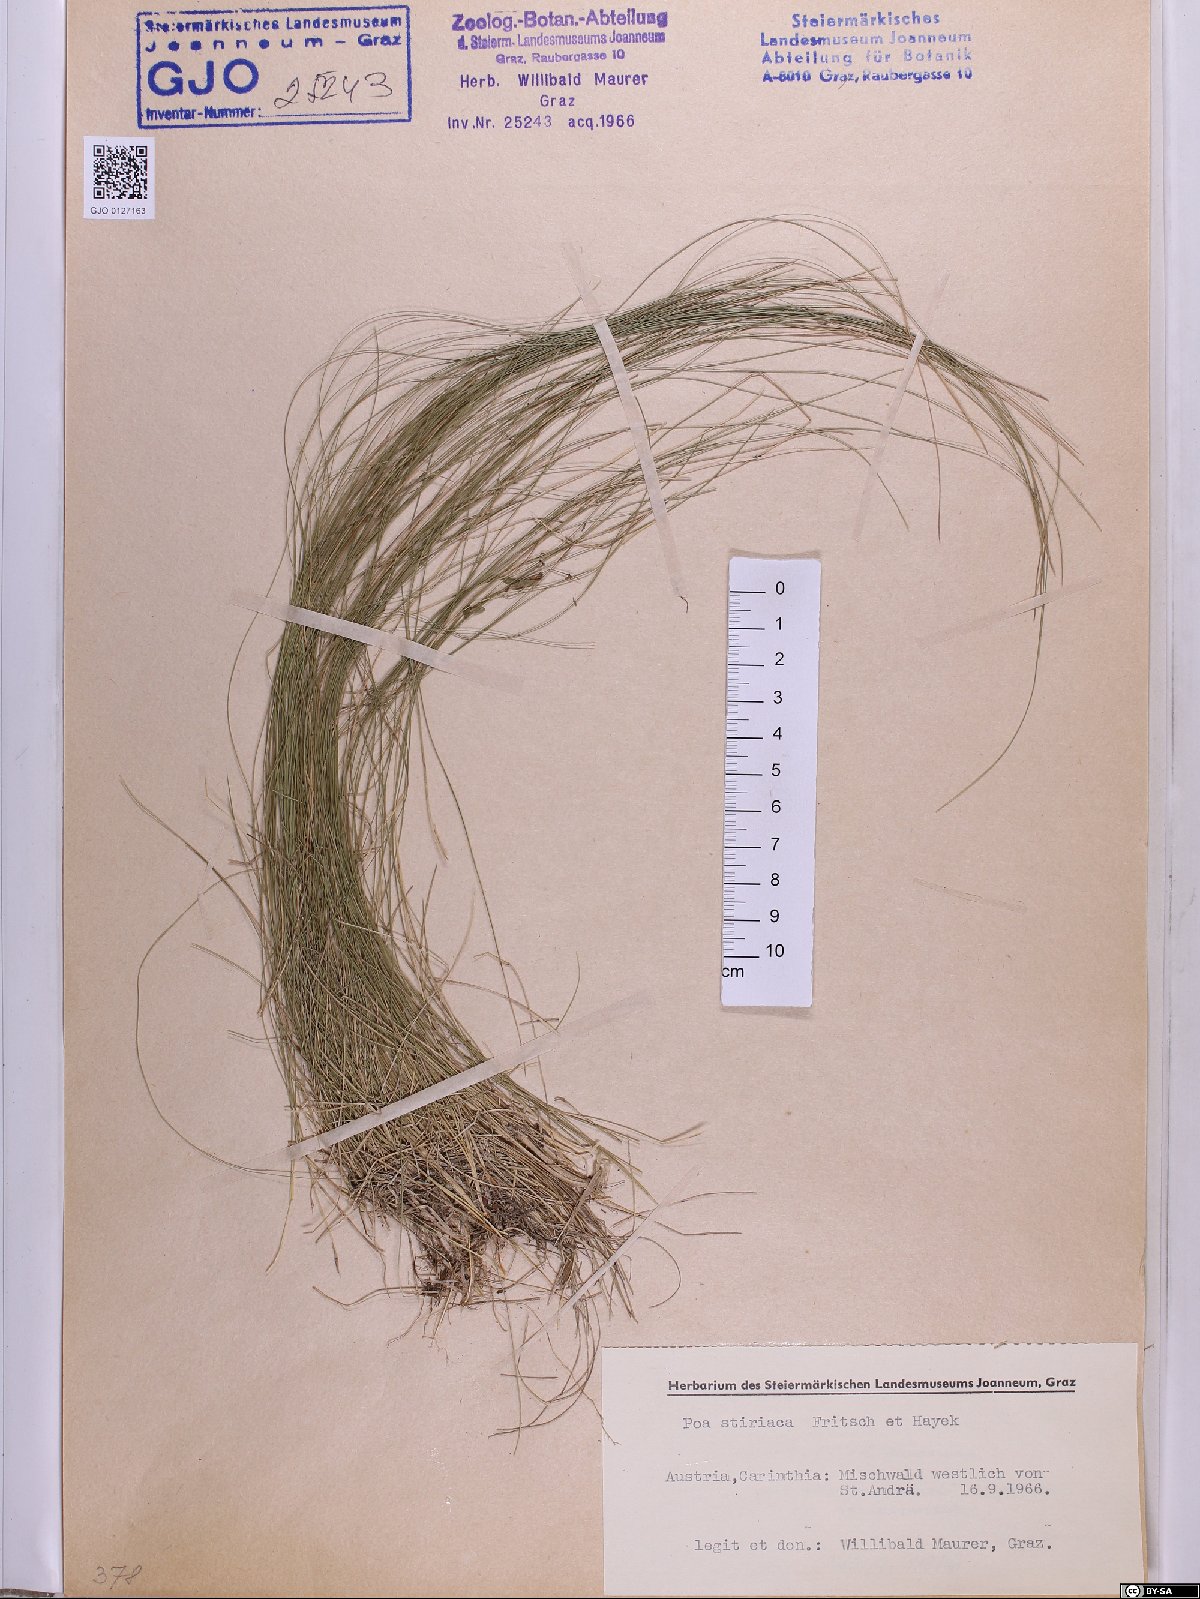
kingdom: Plantae
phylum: Tracheophyta
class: Liliopsida
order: Poales
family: Poaceae
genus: Poa
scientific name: Poa stiriaca
